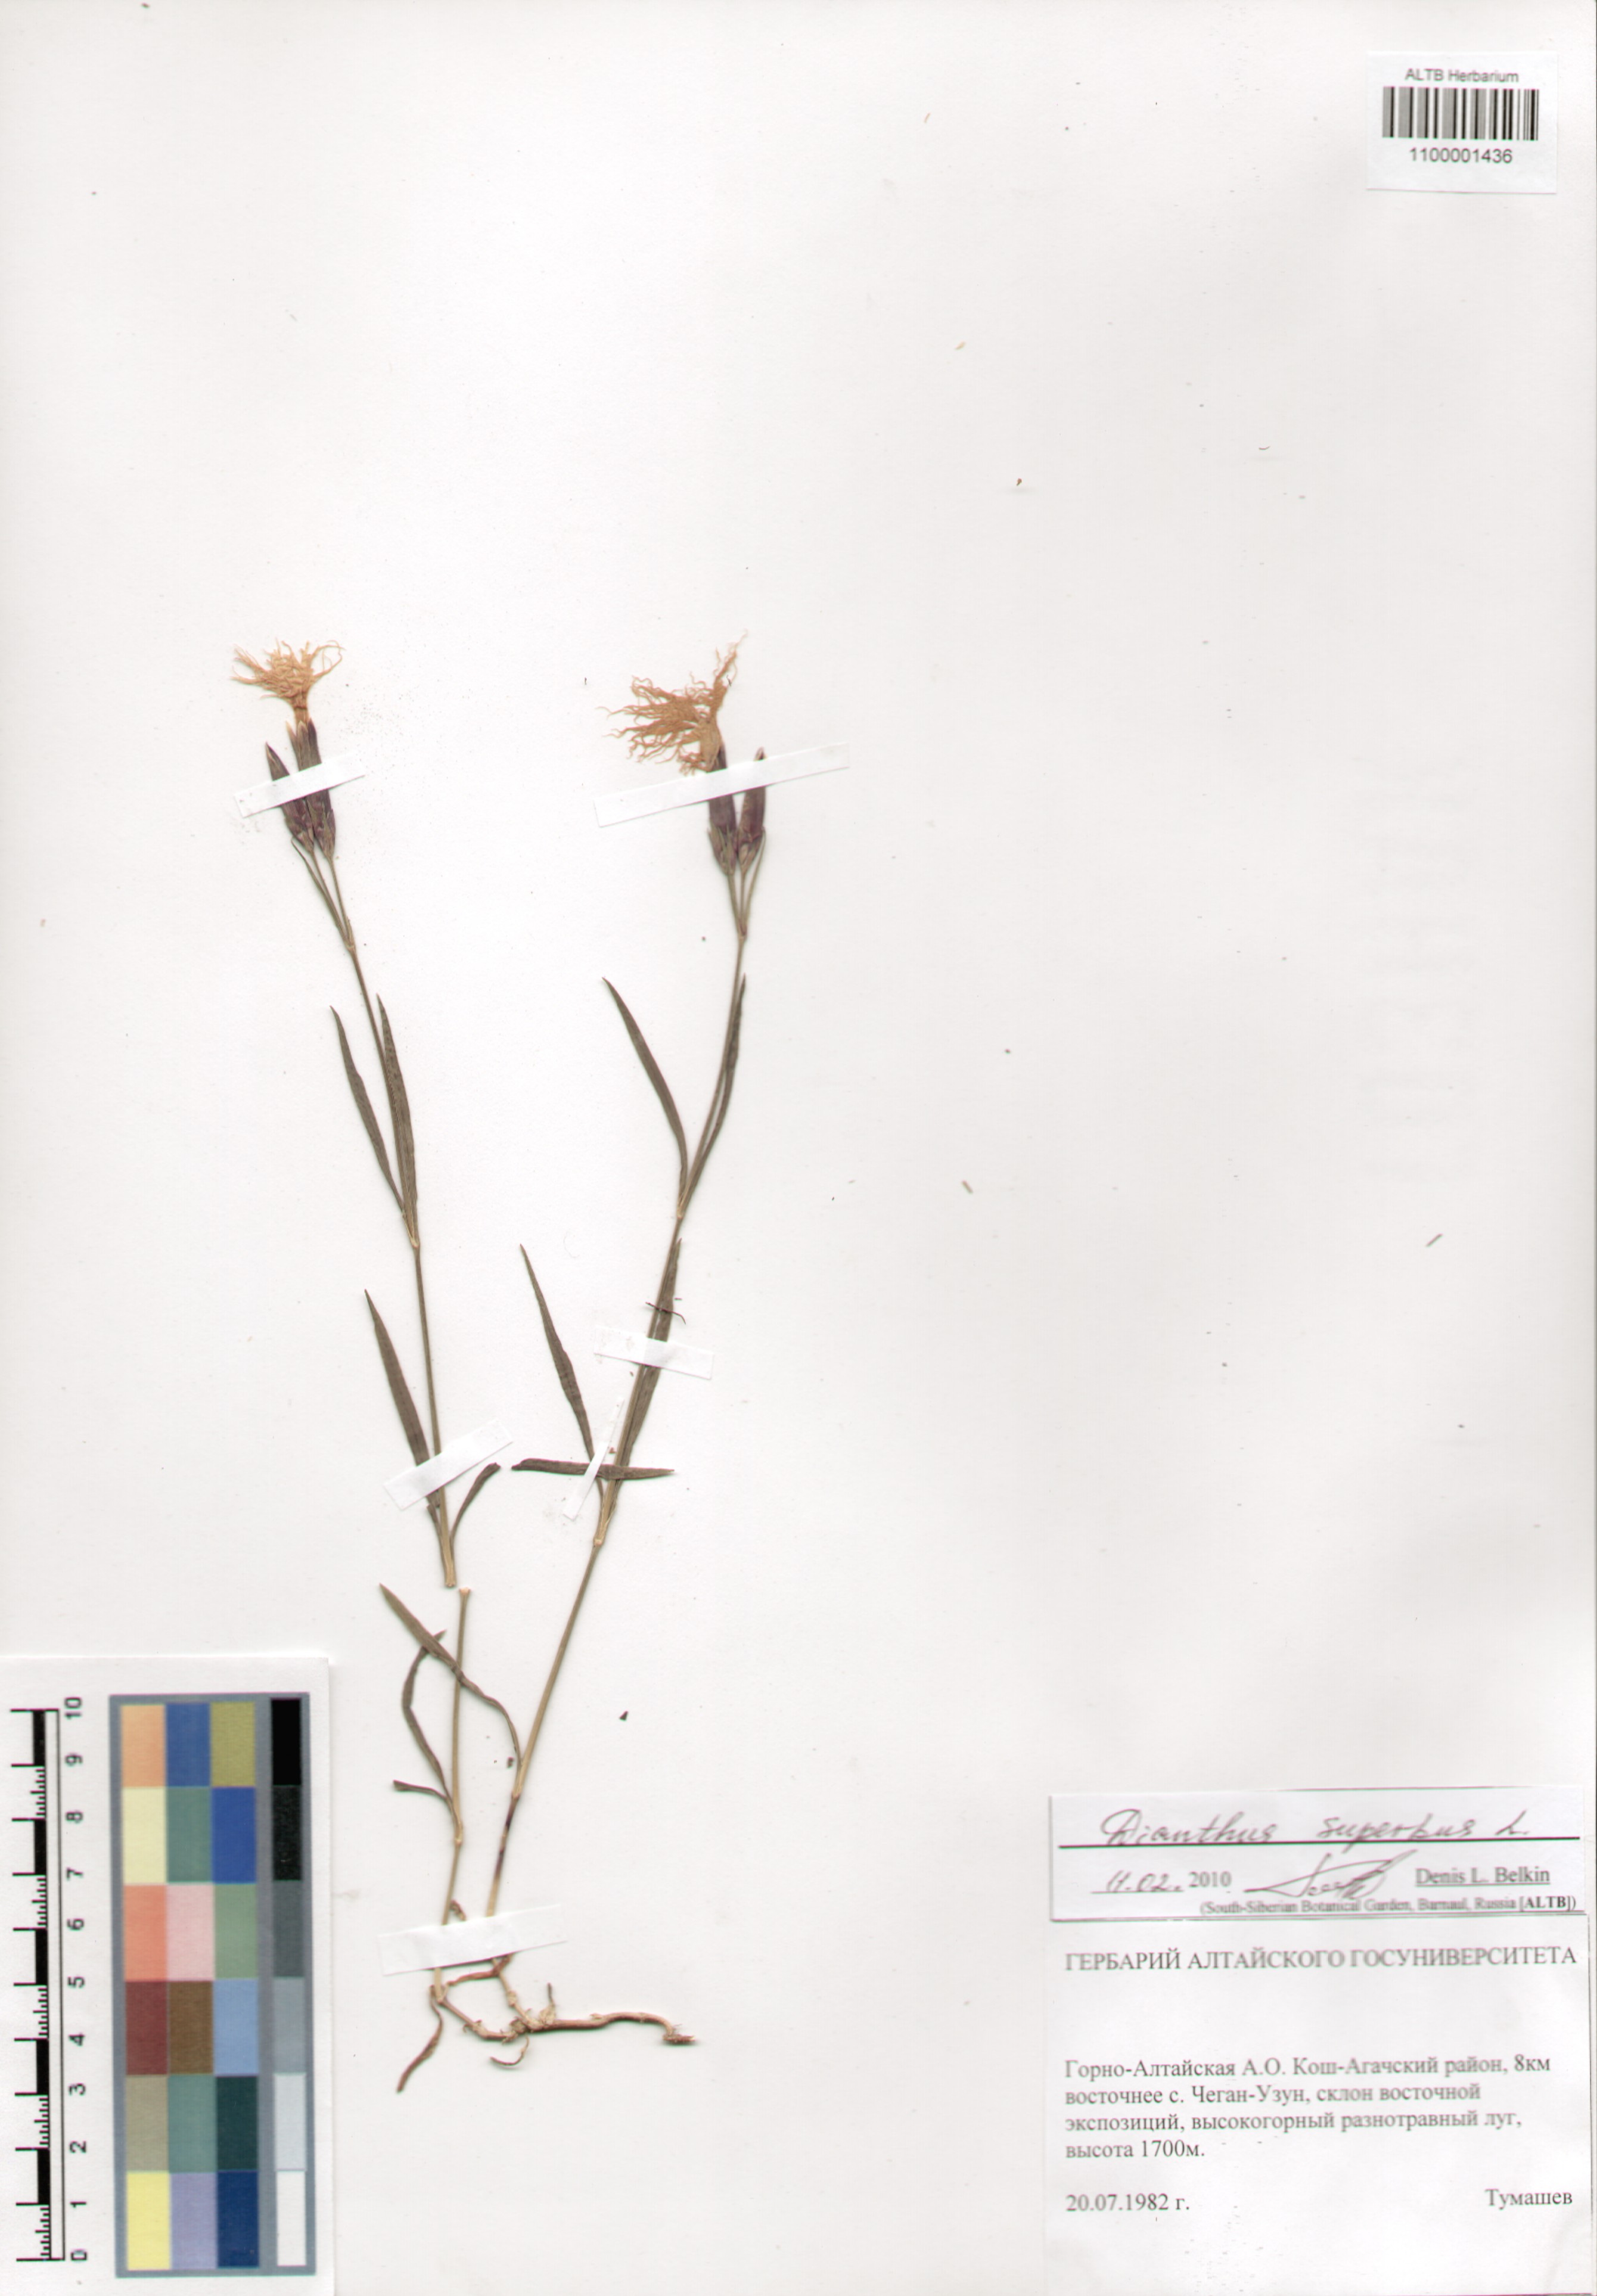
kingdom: Plantae
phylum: Tracheophyta
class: Magnoliopsida
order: Caryophyllales
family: Caryophyllaceae
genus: Dianthus
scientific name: Dianthus superbus
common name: Fringed pink
